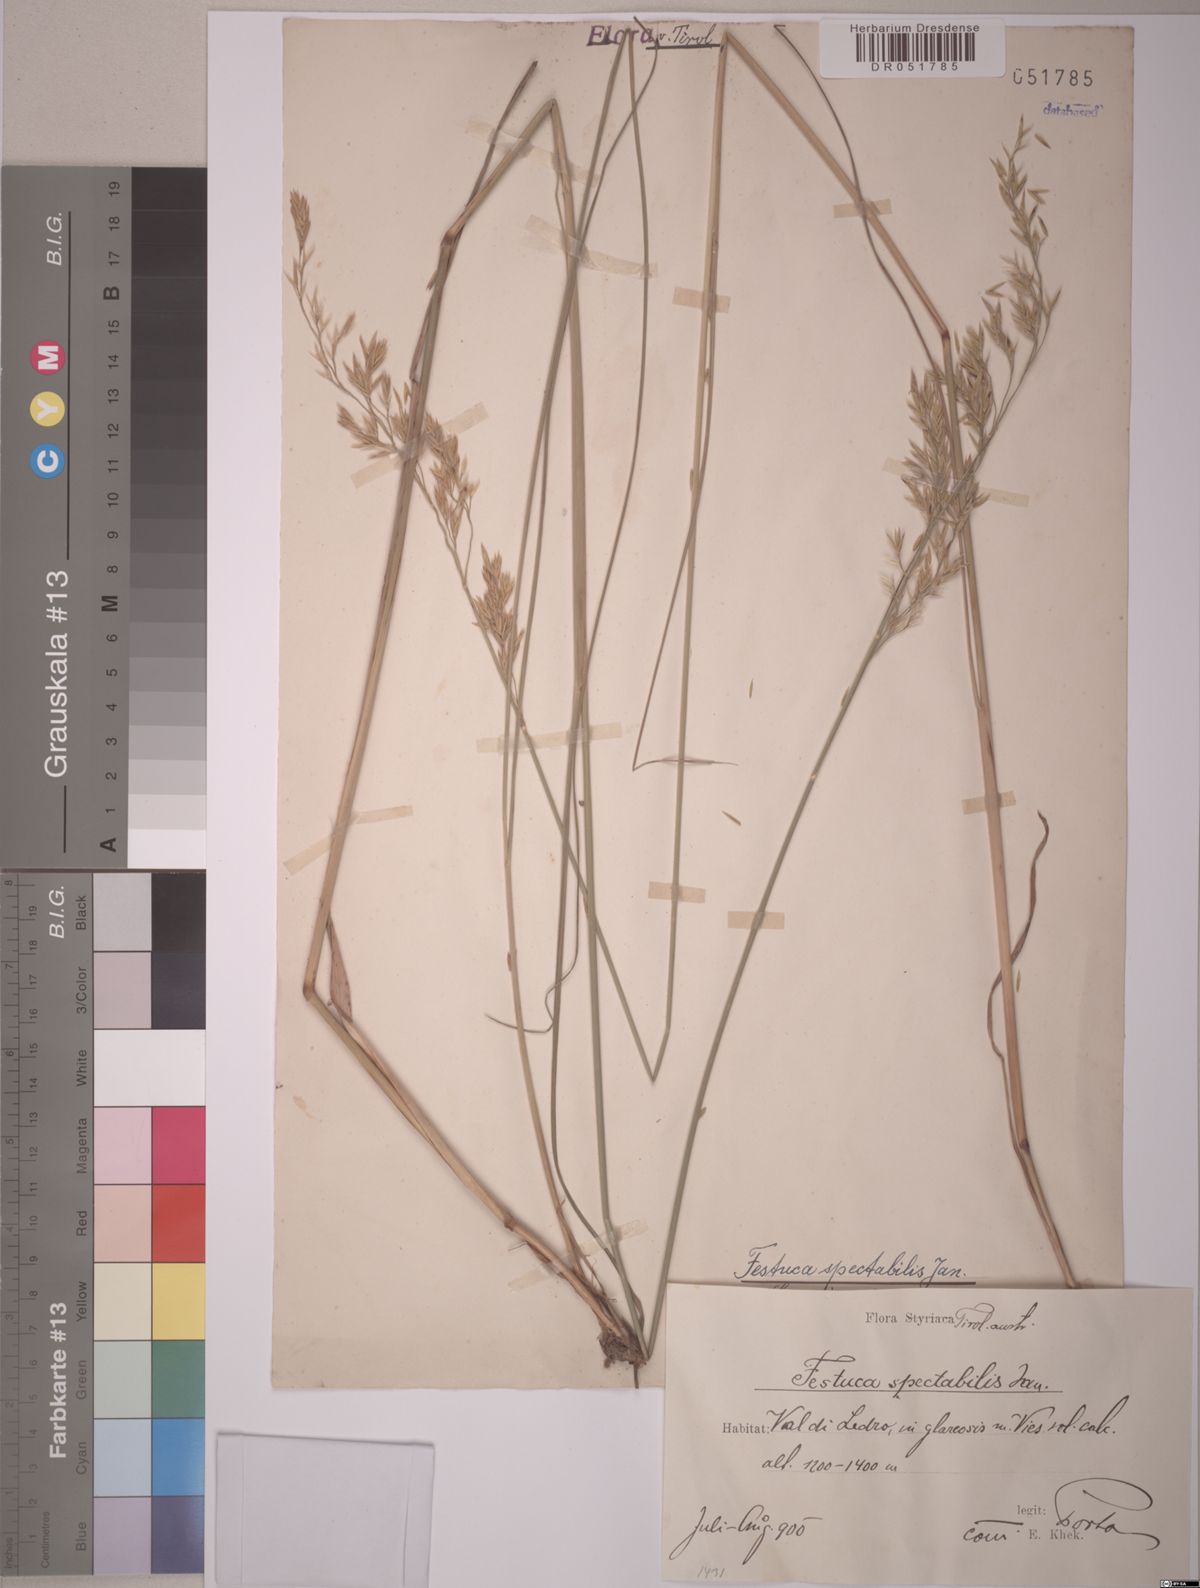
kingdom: Plantae
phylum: Tracheophyta
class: Liliopsida
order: Poales
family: Poaceae
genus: Festuca
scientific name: Festuca spectabilis
